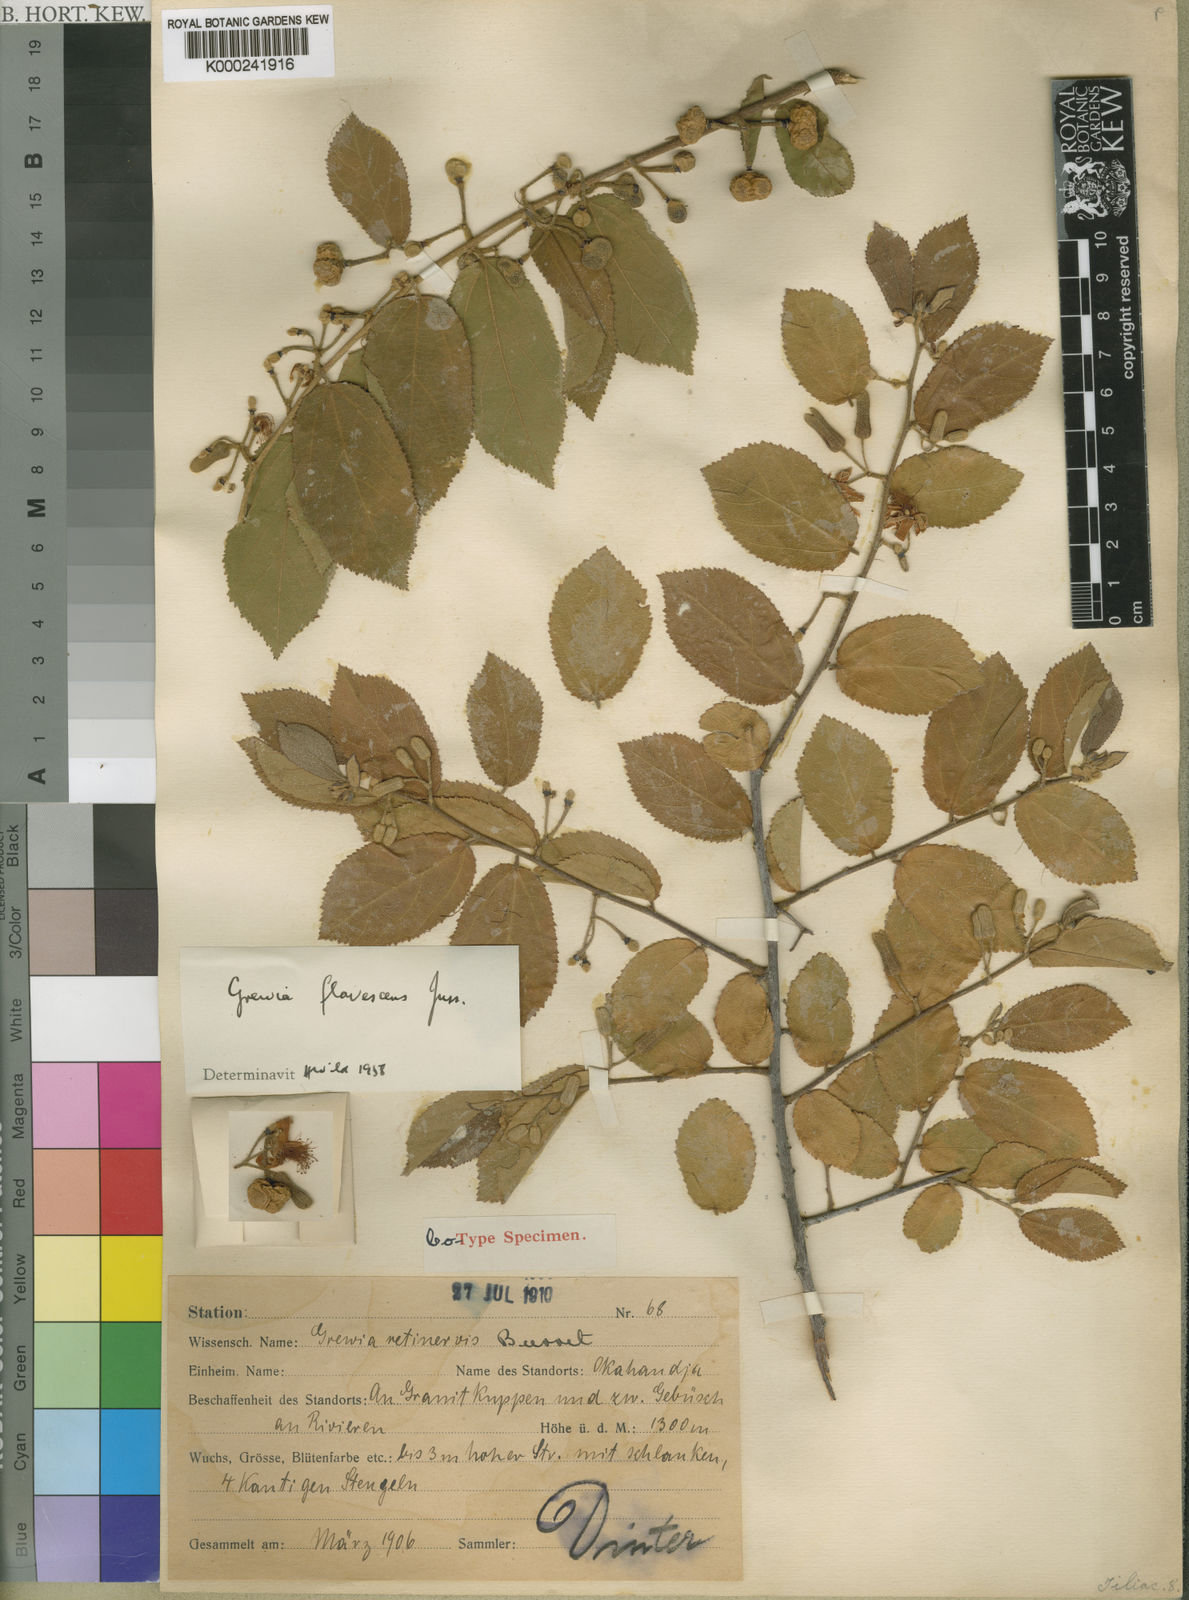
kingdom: Plantae
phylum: Tracheophyta
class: Magnoliopsida
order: Malvales
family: Malvaceae
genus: Grewia
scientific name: Grewia flavescens
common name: Sandpaper raisin
